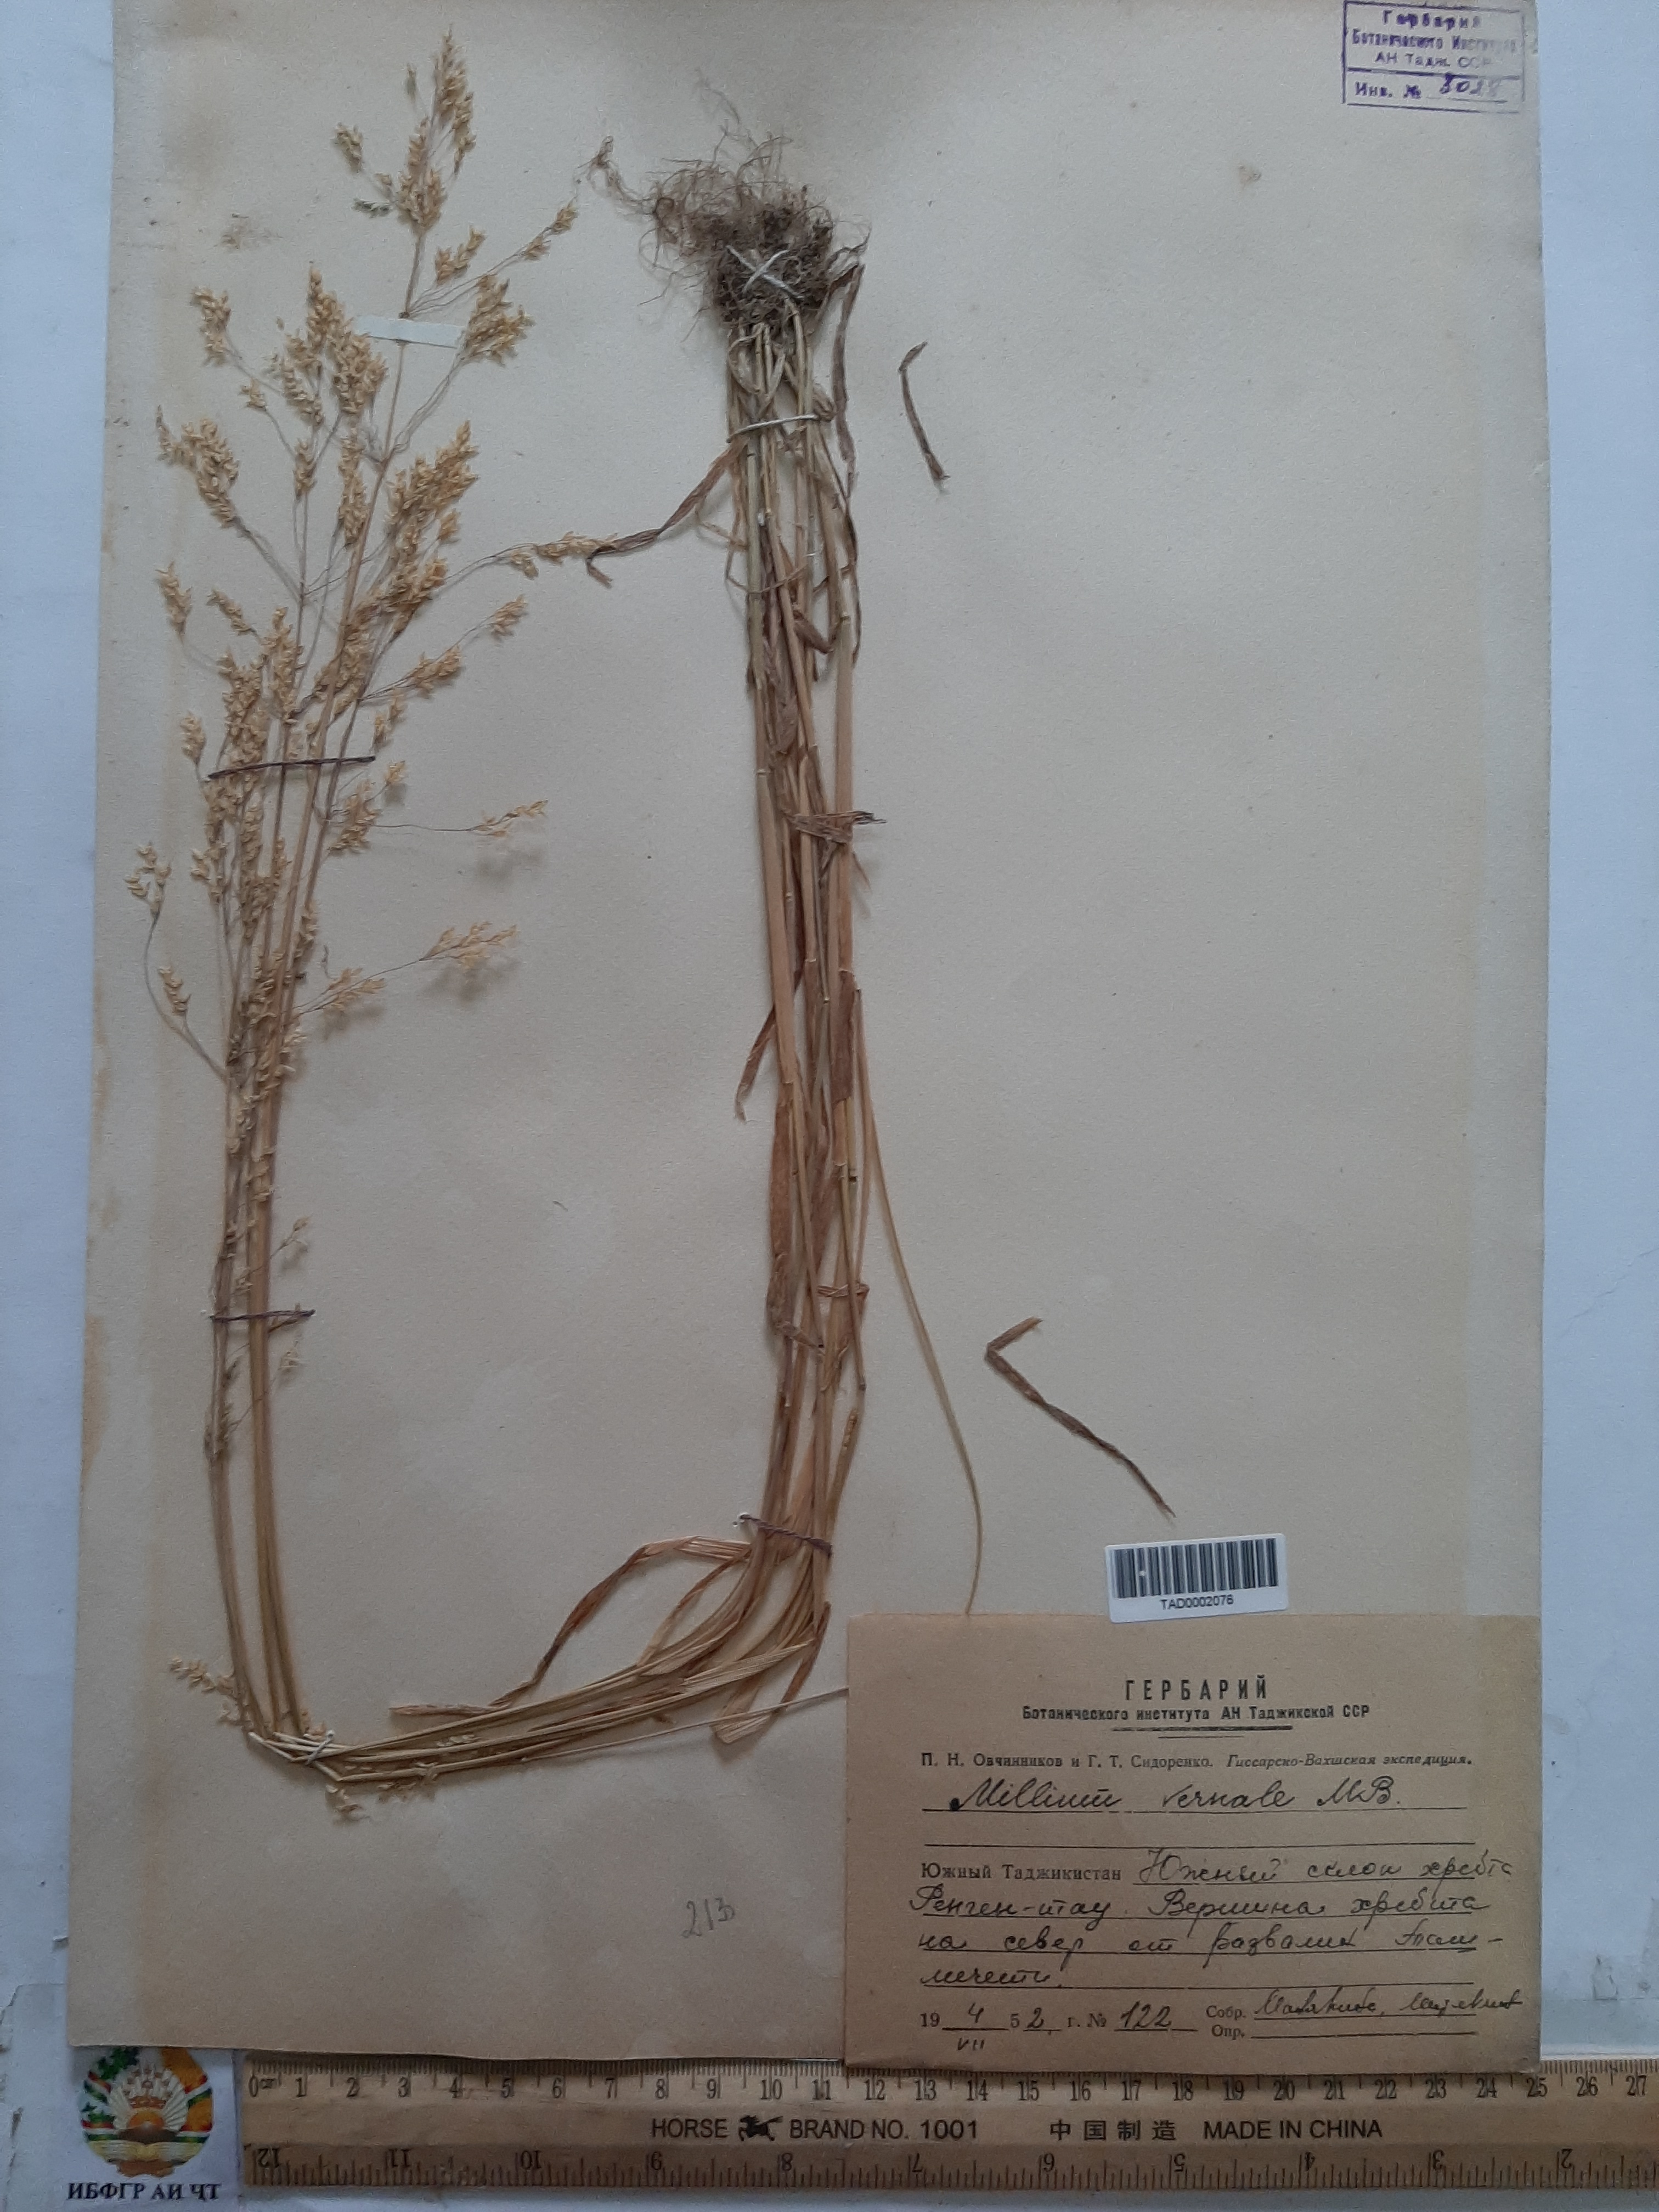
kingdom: Plantae
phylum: Tracheophyta
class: Liliopsida
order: Poales
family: Poaceae
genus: Milium
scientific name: Milium vernale
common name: Early millet
